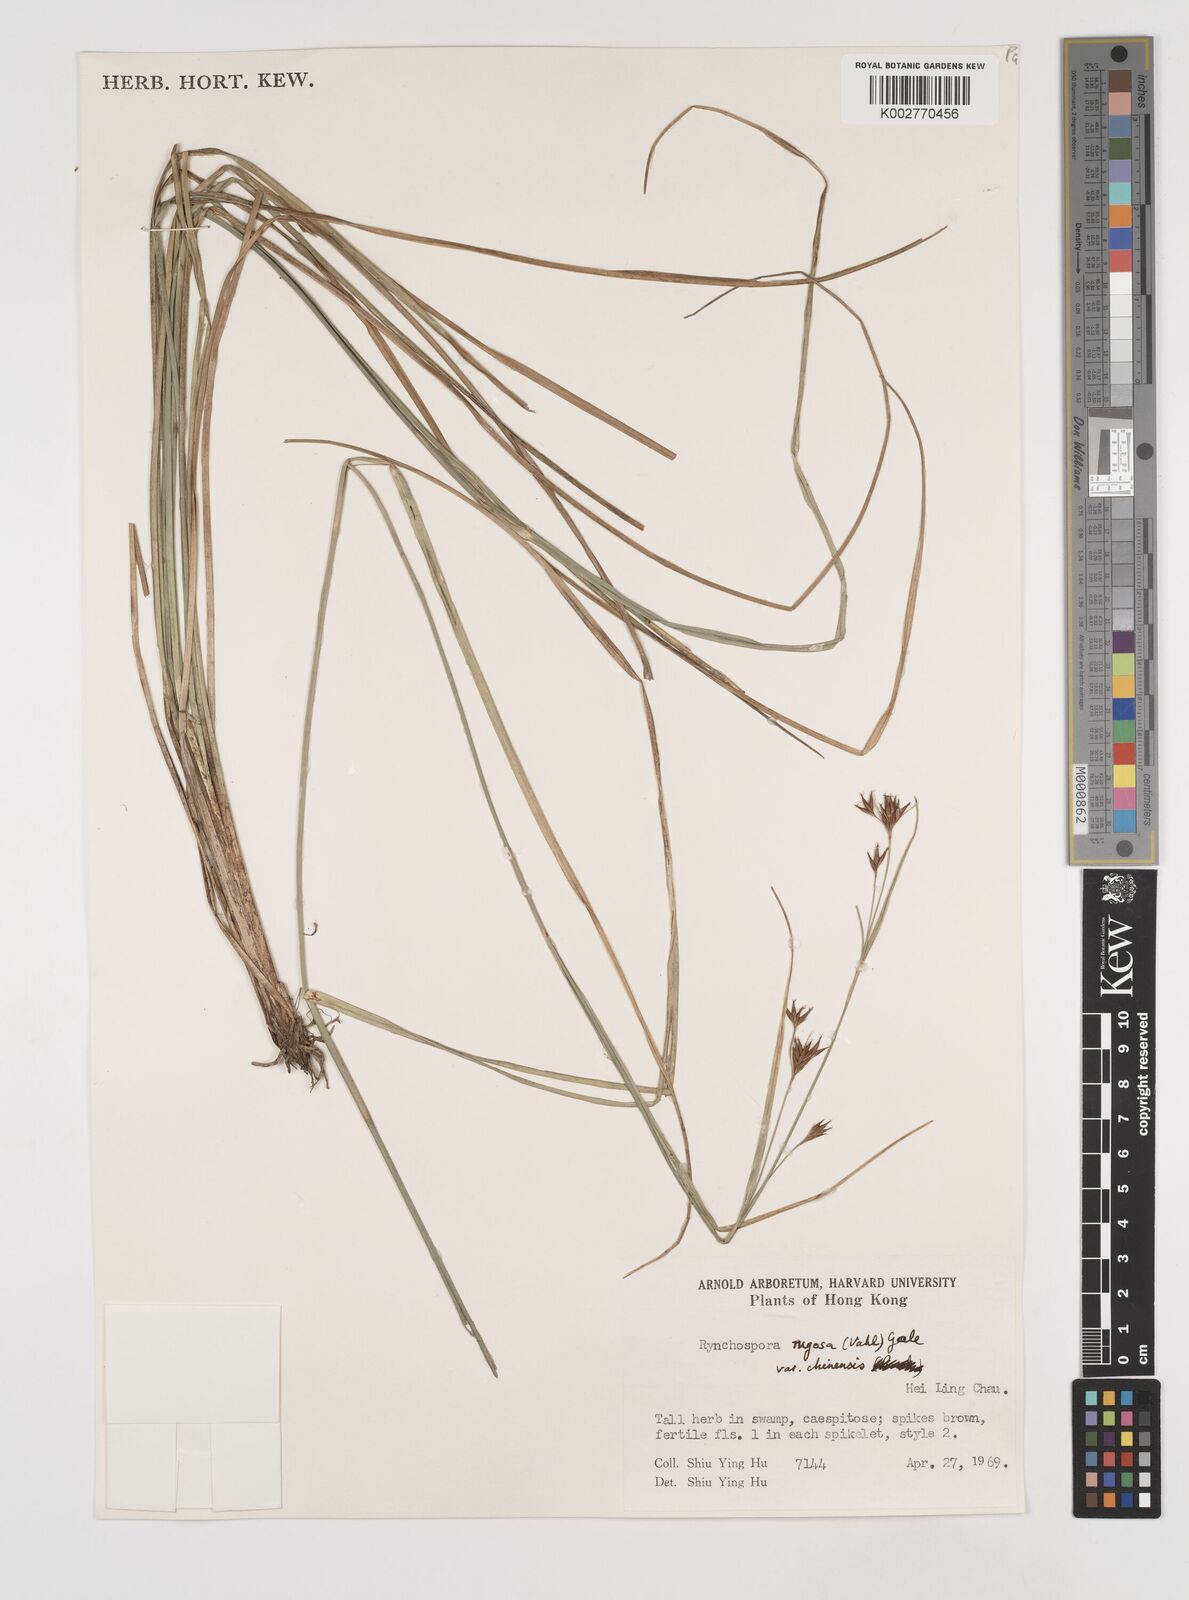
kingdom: Plantae
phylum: Tracheophyta
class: Liliopsida
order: Poales
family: Cyperaceae
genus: Rhynchospora
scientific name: Rhynchospora
